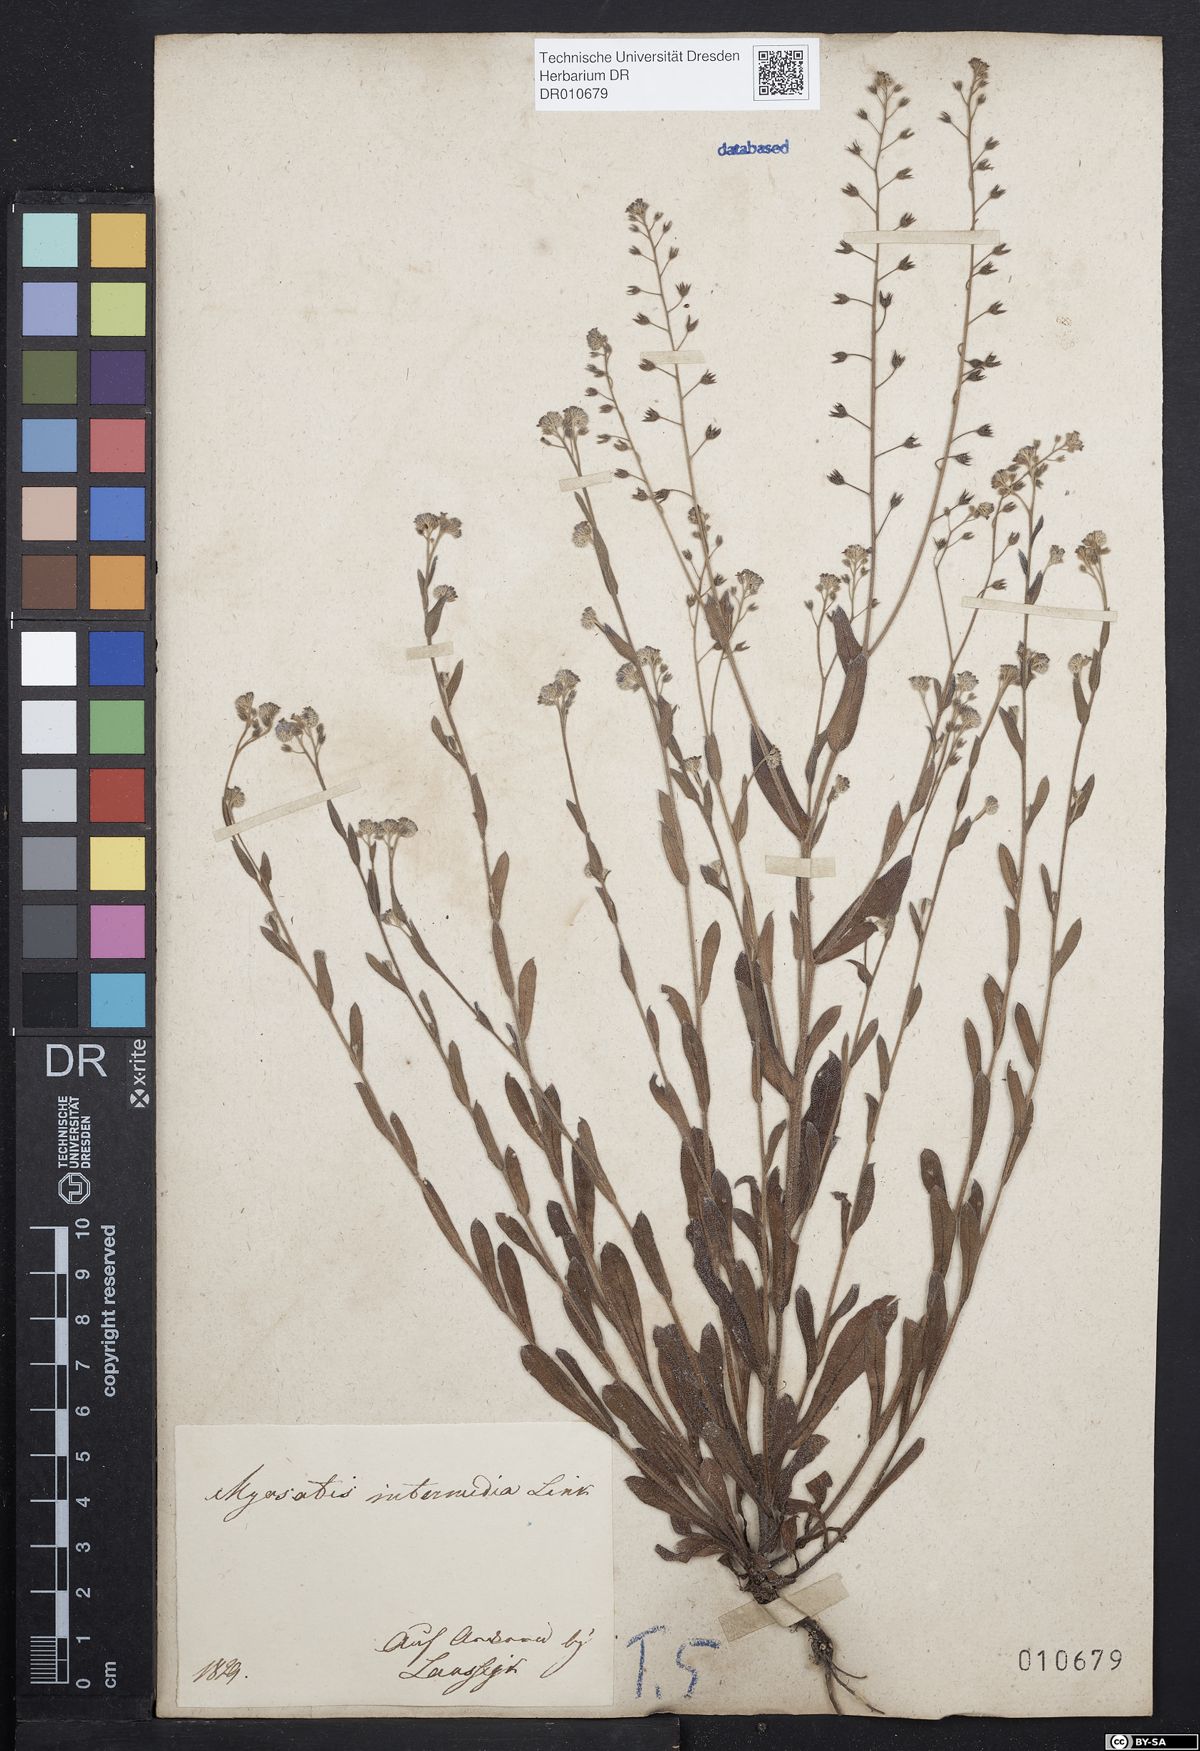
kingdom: Plantae
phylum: Tracheophyta
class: Magnoliopsida
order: Boraginales
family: Boraginaceae
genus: Myosotis
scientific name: Myosotis arvensis
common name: Field forget-me-not
